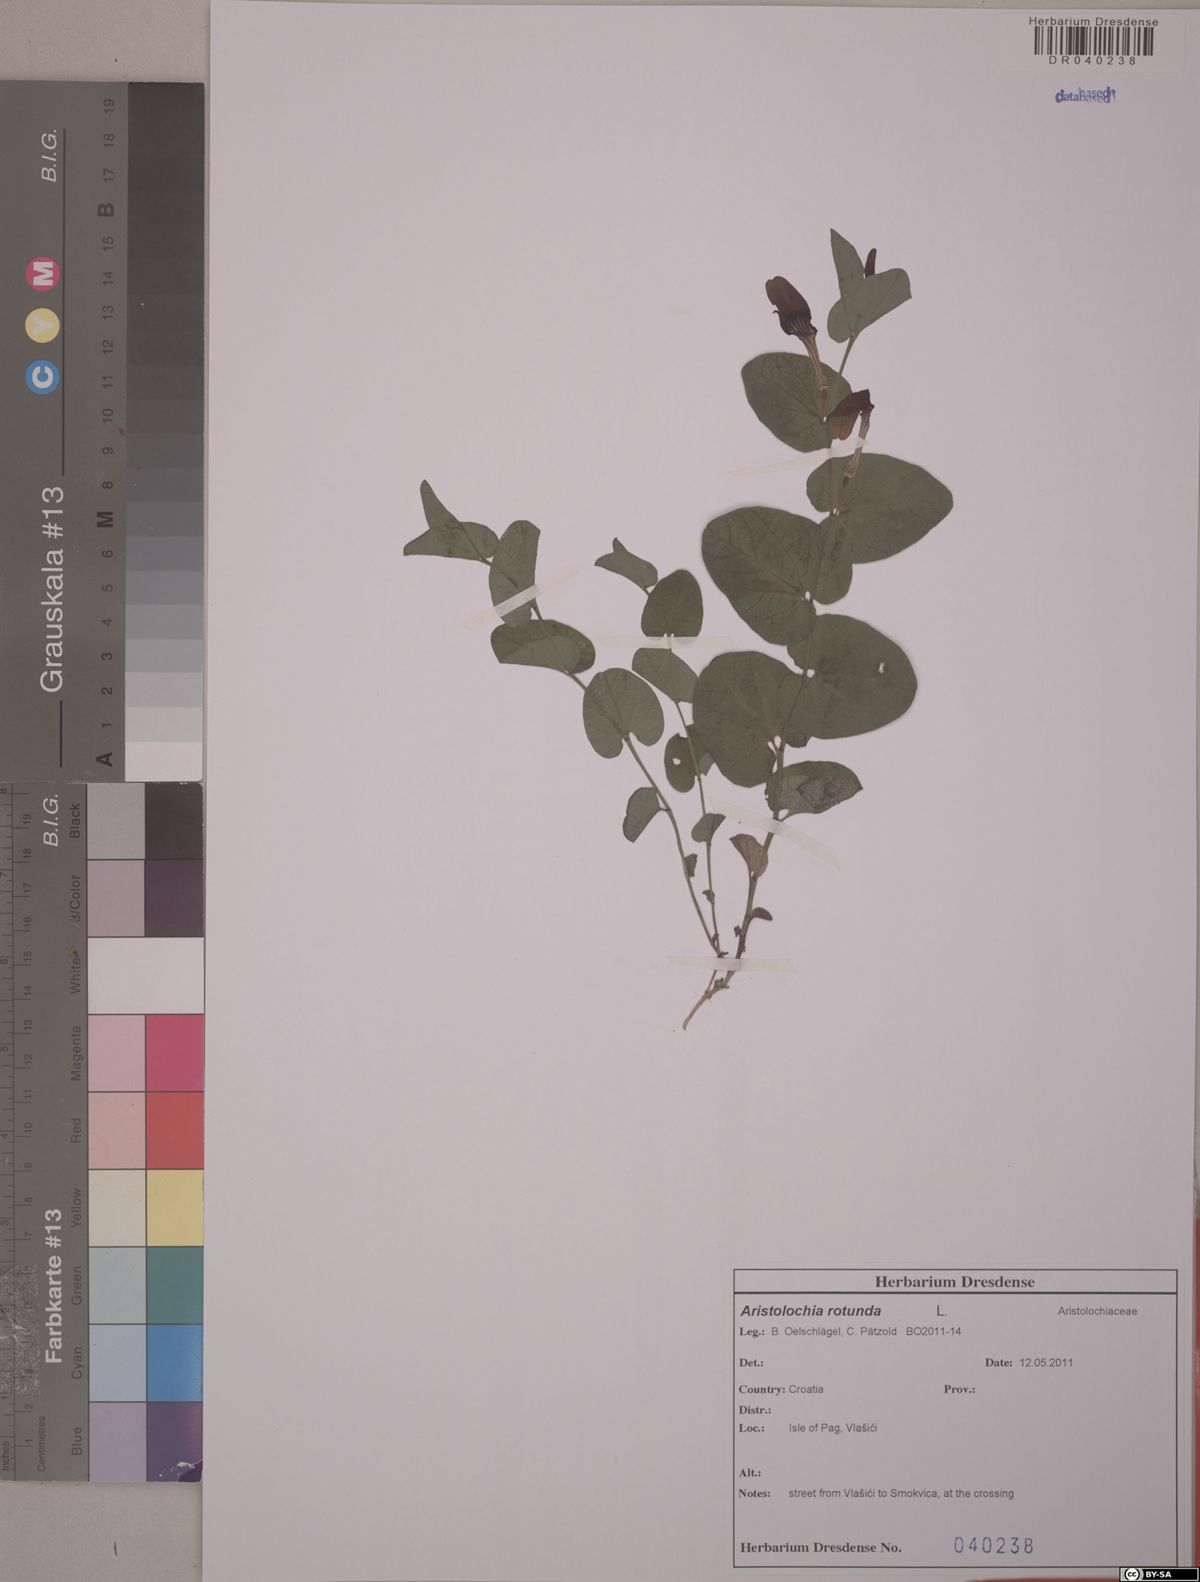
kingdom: Plantae
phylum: Tracheophyta
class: Magnoliopsida
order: Piperales
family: Aristolochiaceae
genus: Aristolochia
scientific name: Aristolochia rotunda
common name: Smearwort
